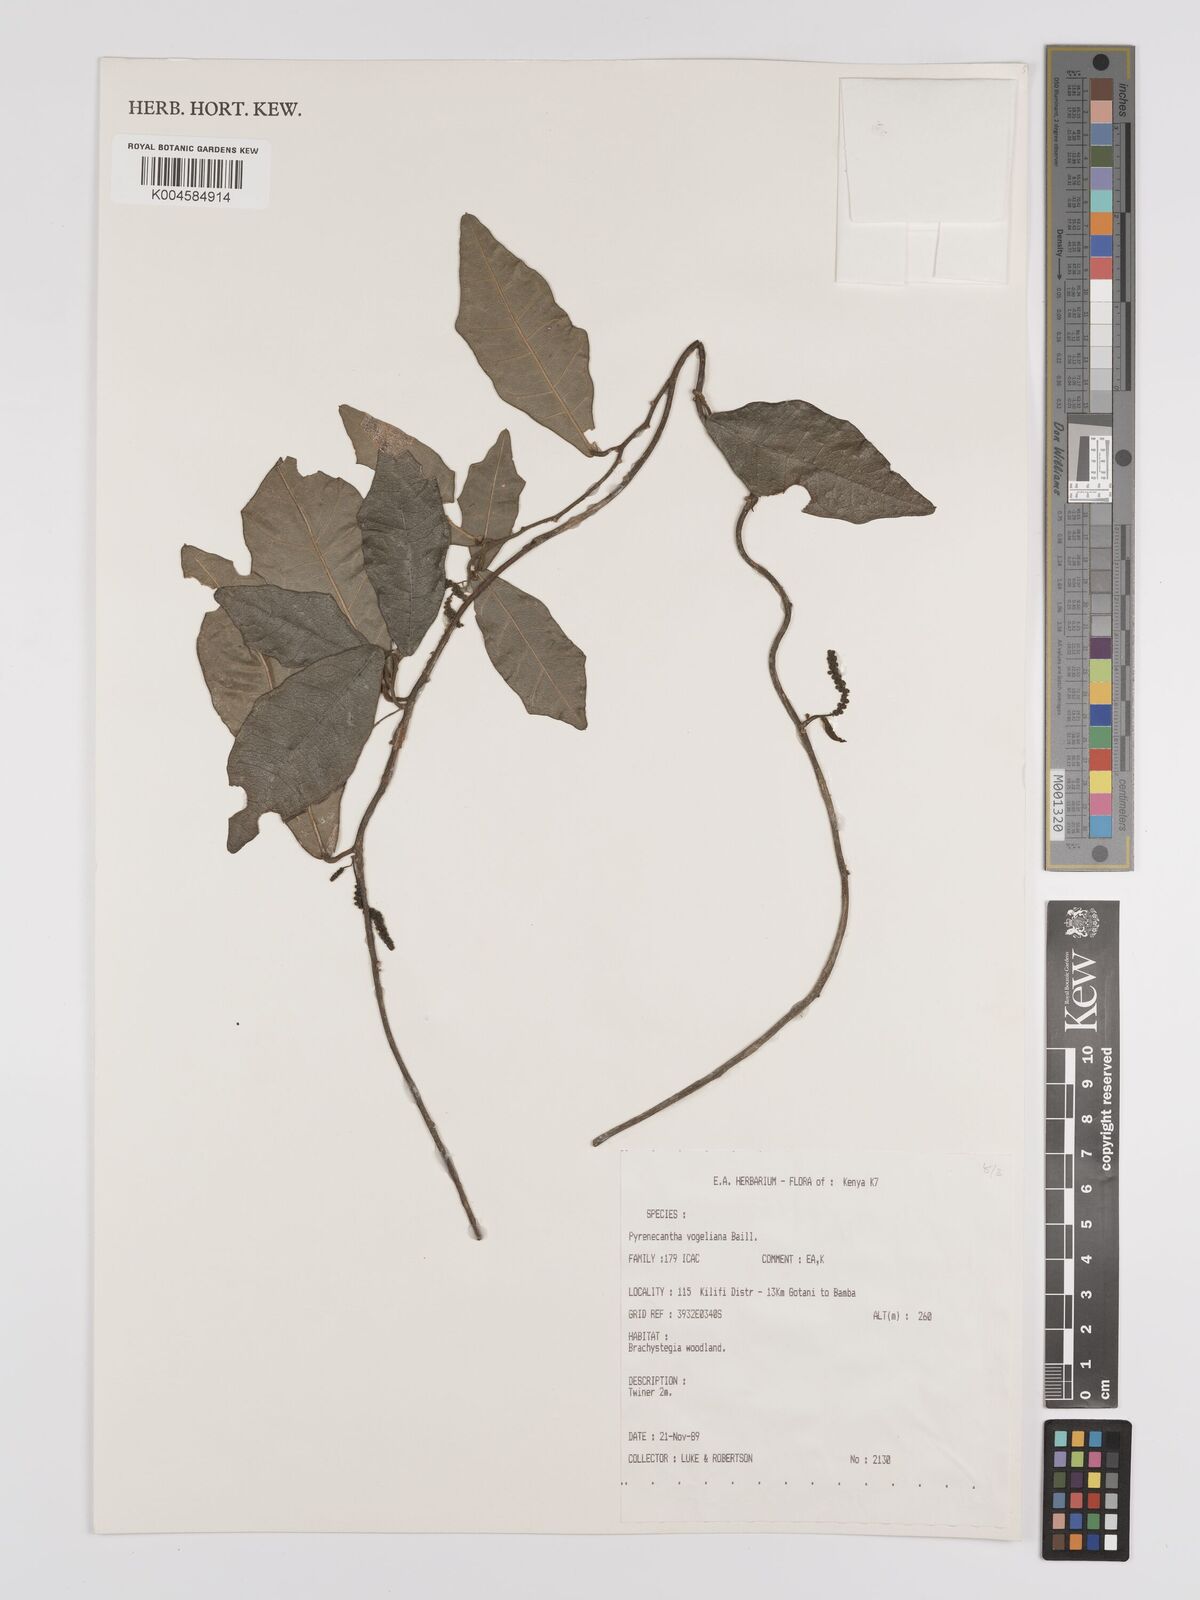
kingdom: Plantae
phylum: Tracheophyta
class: Magnoliopsida
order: Icacinales
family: Icacinaceae
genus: Pyrenacantha
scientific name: Pyrenacantha vogeliana
